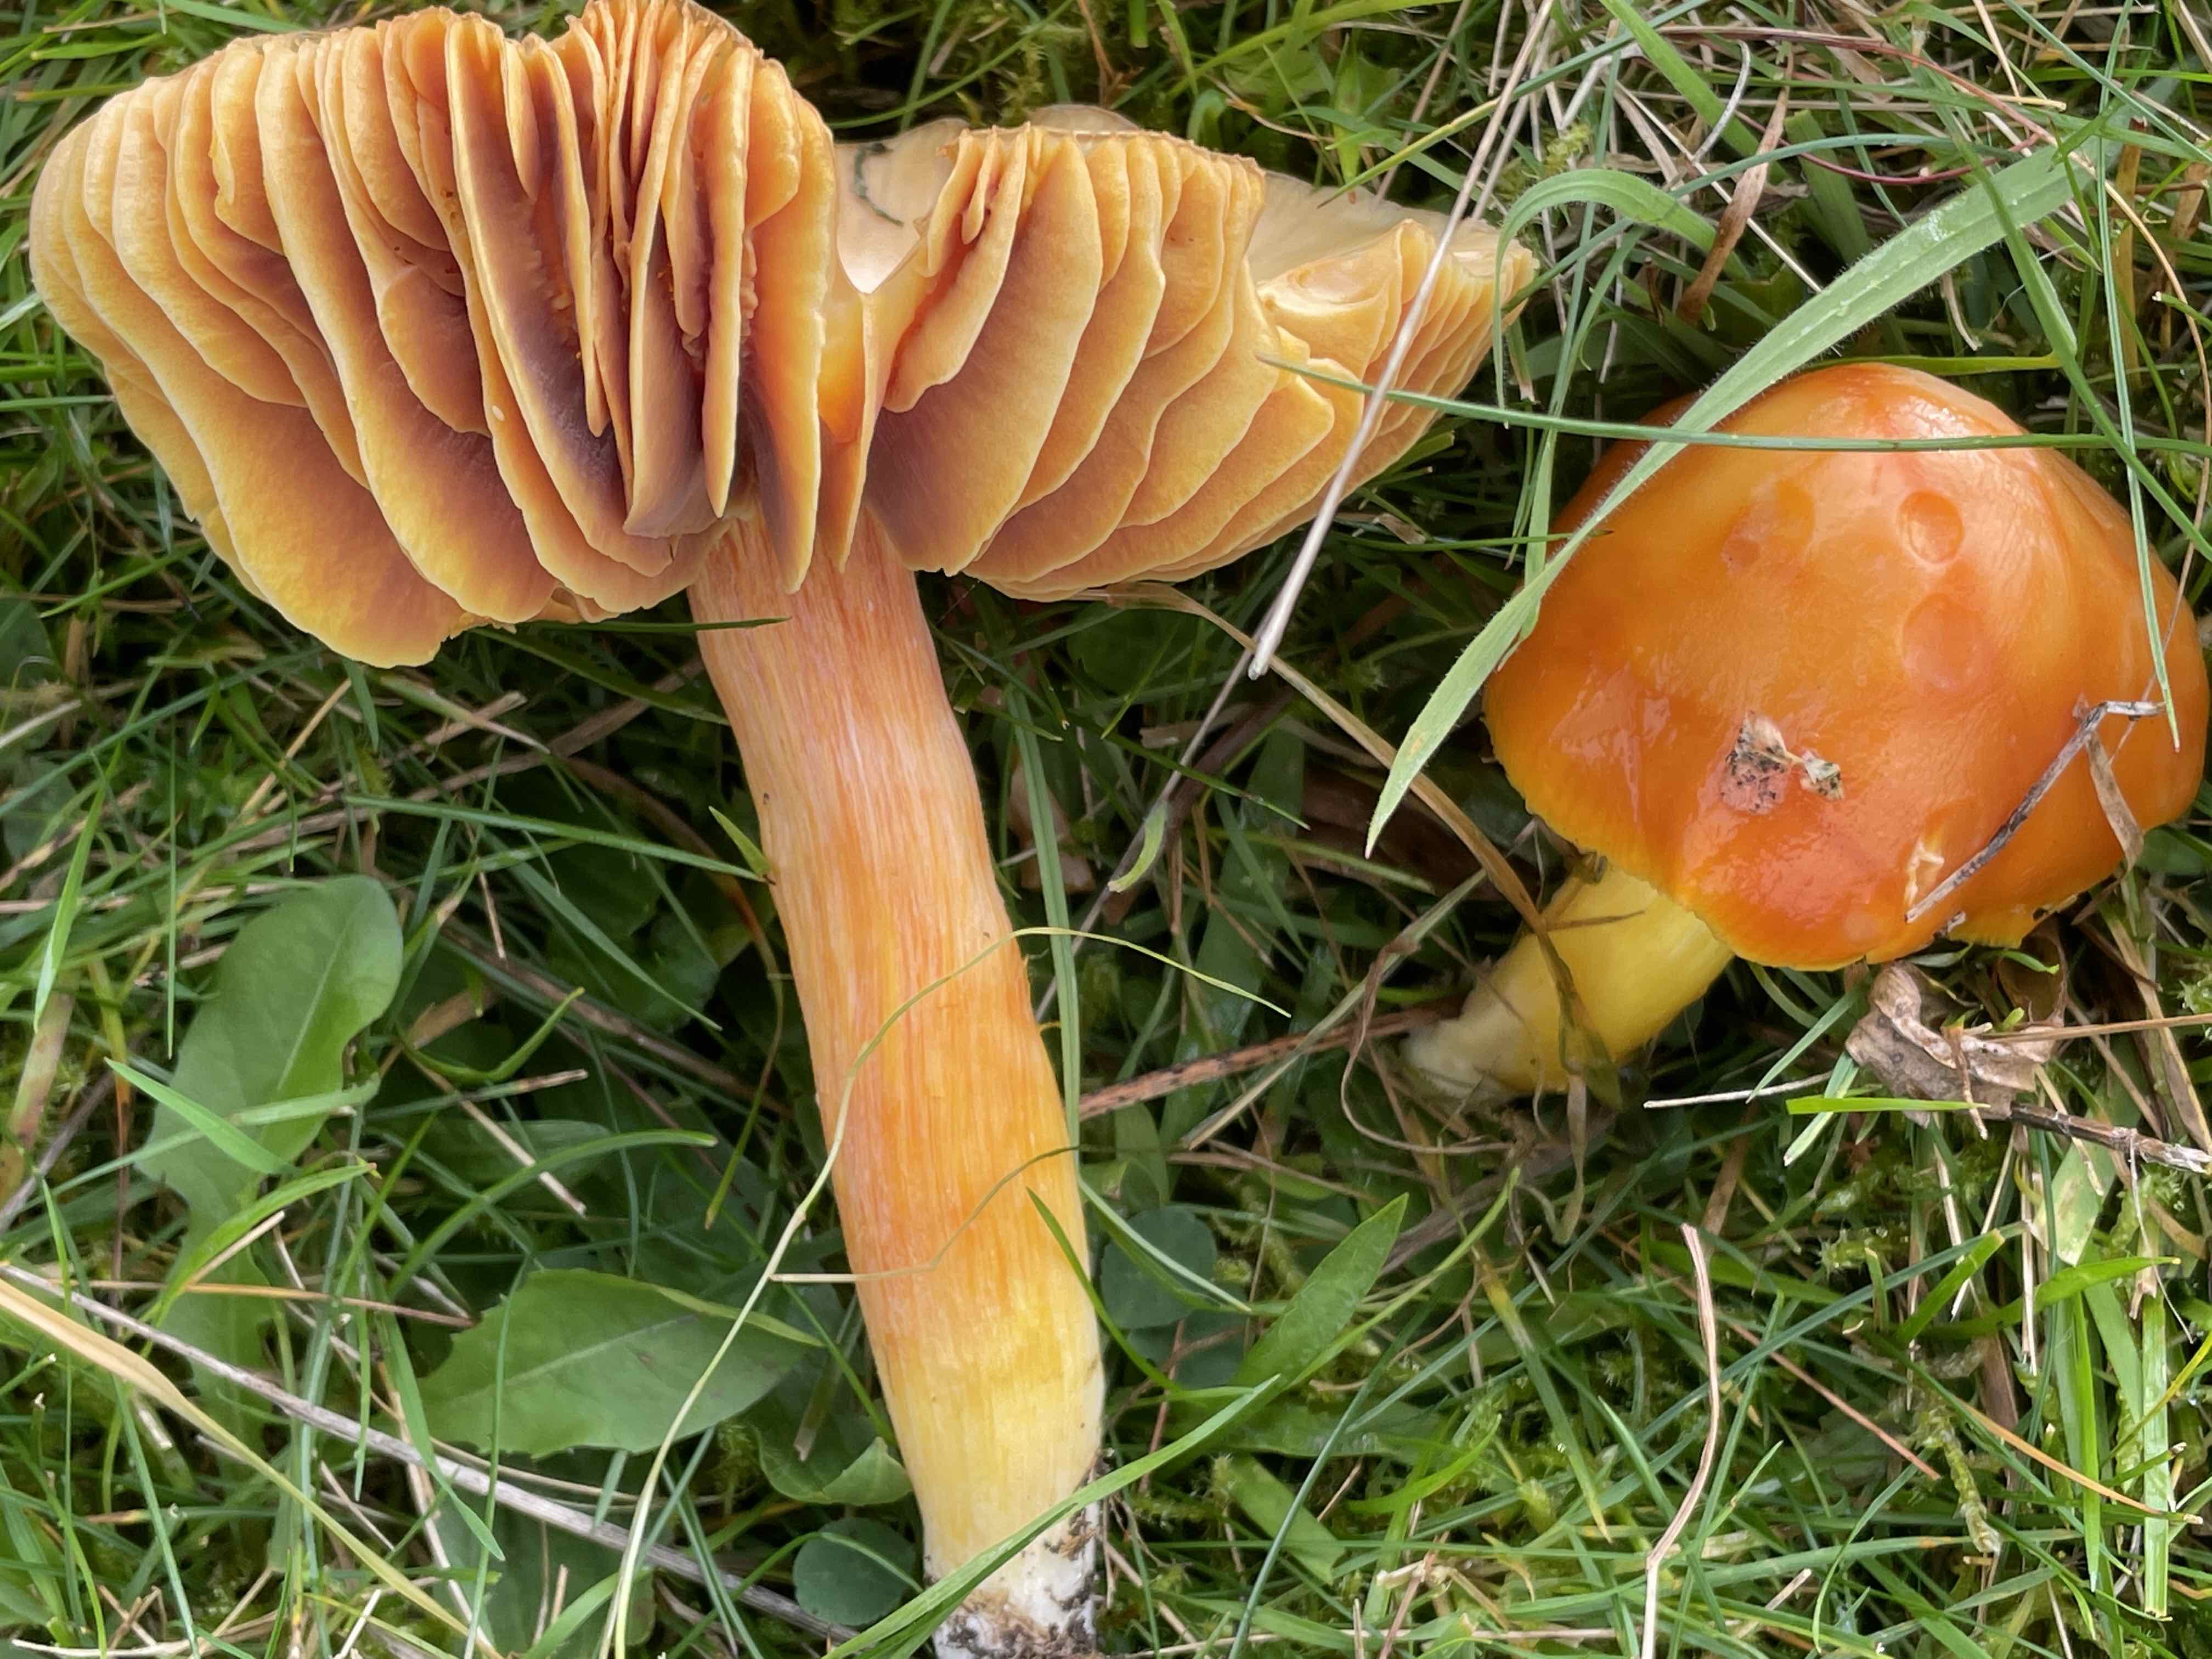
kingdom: Fungi
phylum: Basidiomycota
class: Agaricomycetes
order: Agaricales
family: Hygrophoraceae
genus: Hygrocybe
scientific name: Hygrocybe punicea
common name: skarlagen-vokshat
